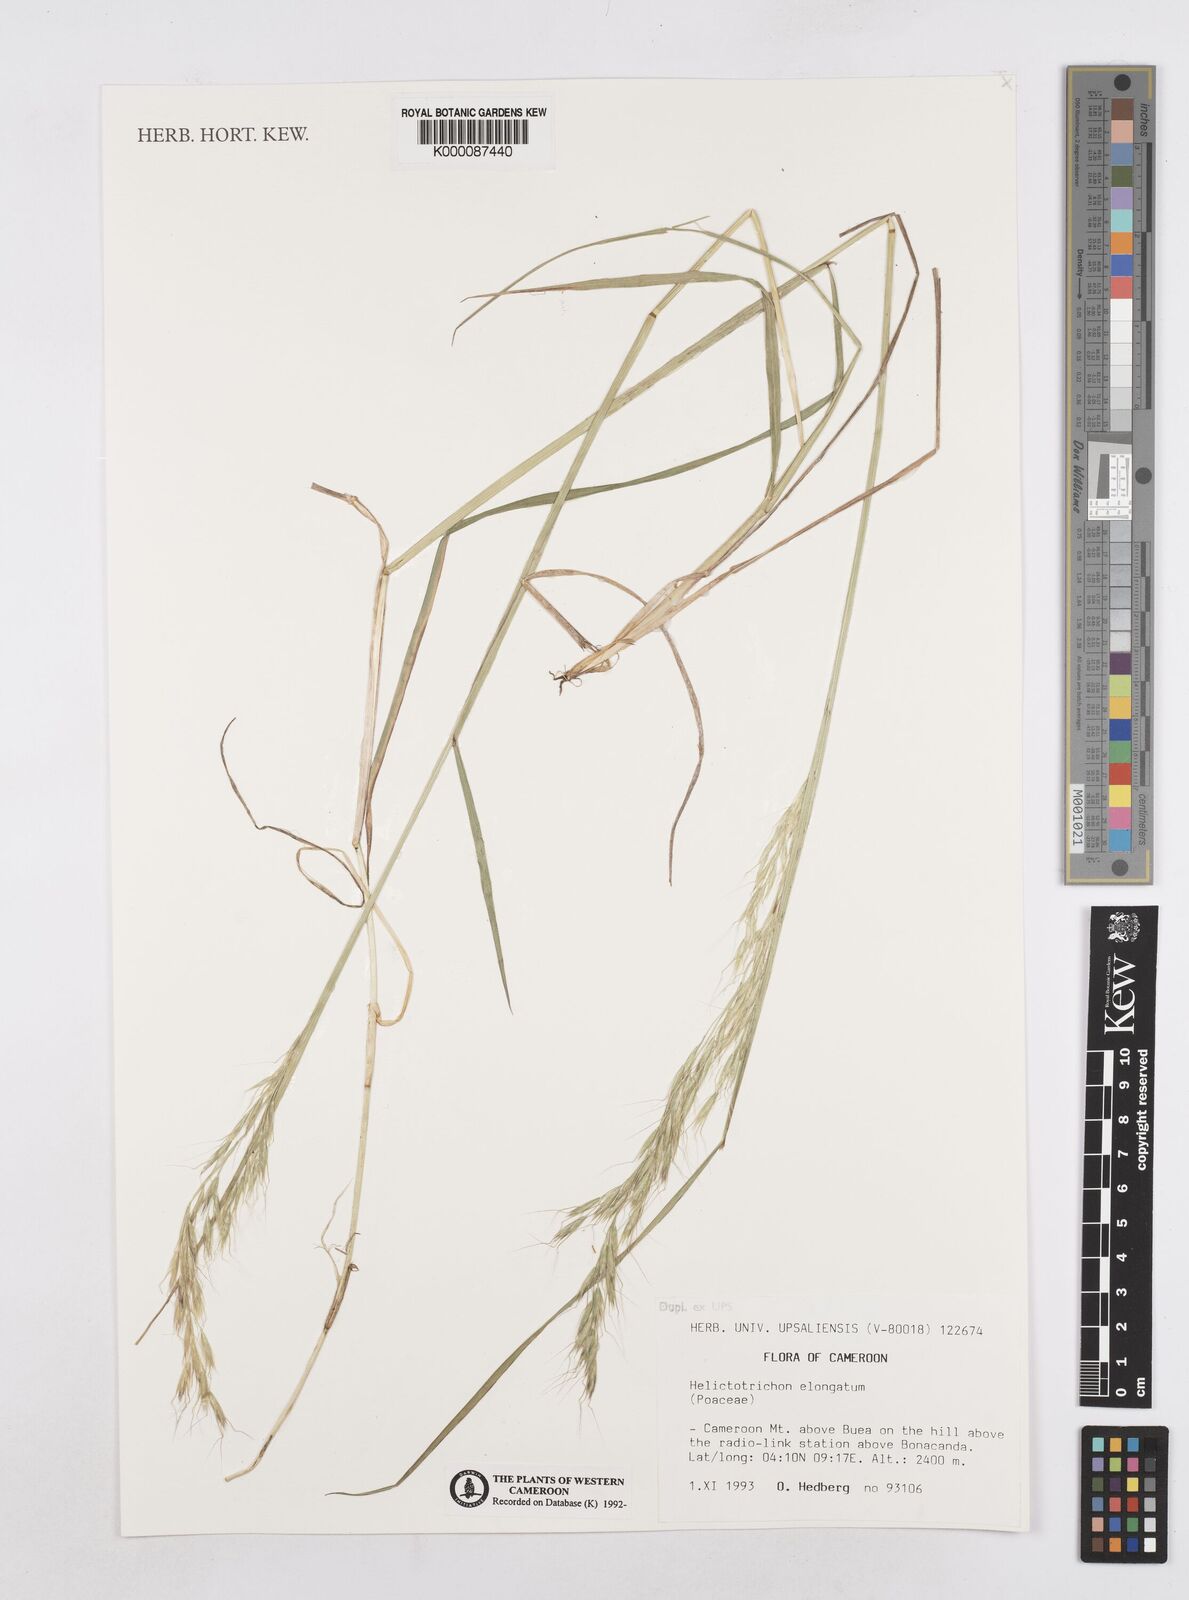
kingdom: Plantae
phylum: Tracheophyta
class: Liliopsida
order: Poales
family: Poaceae
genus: Trisetopsis
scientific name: Trisetopsis elongata
